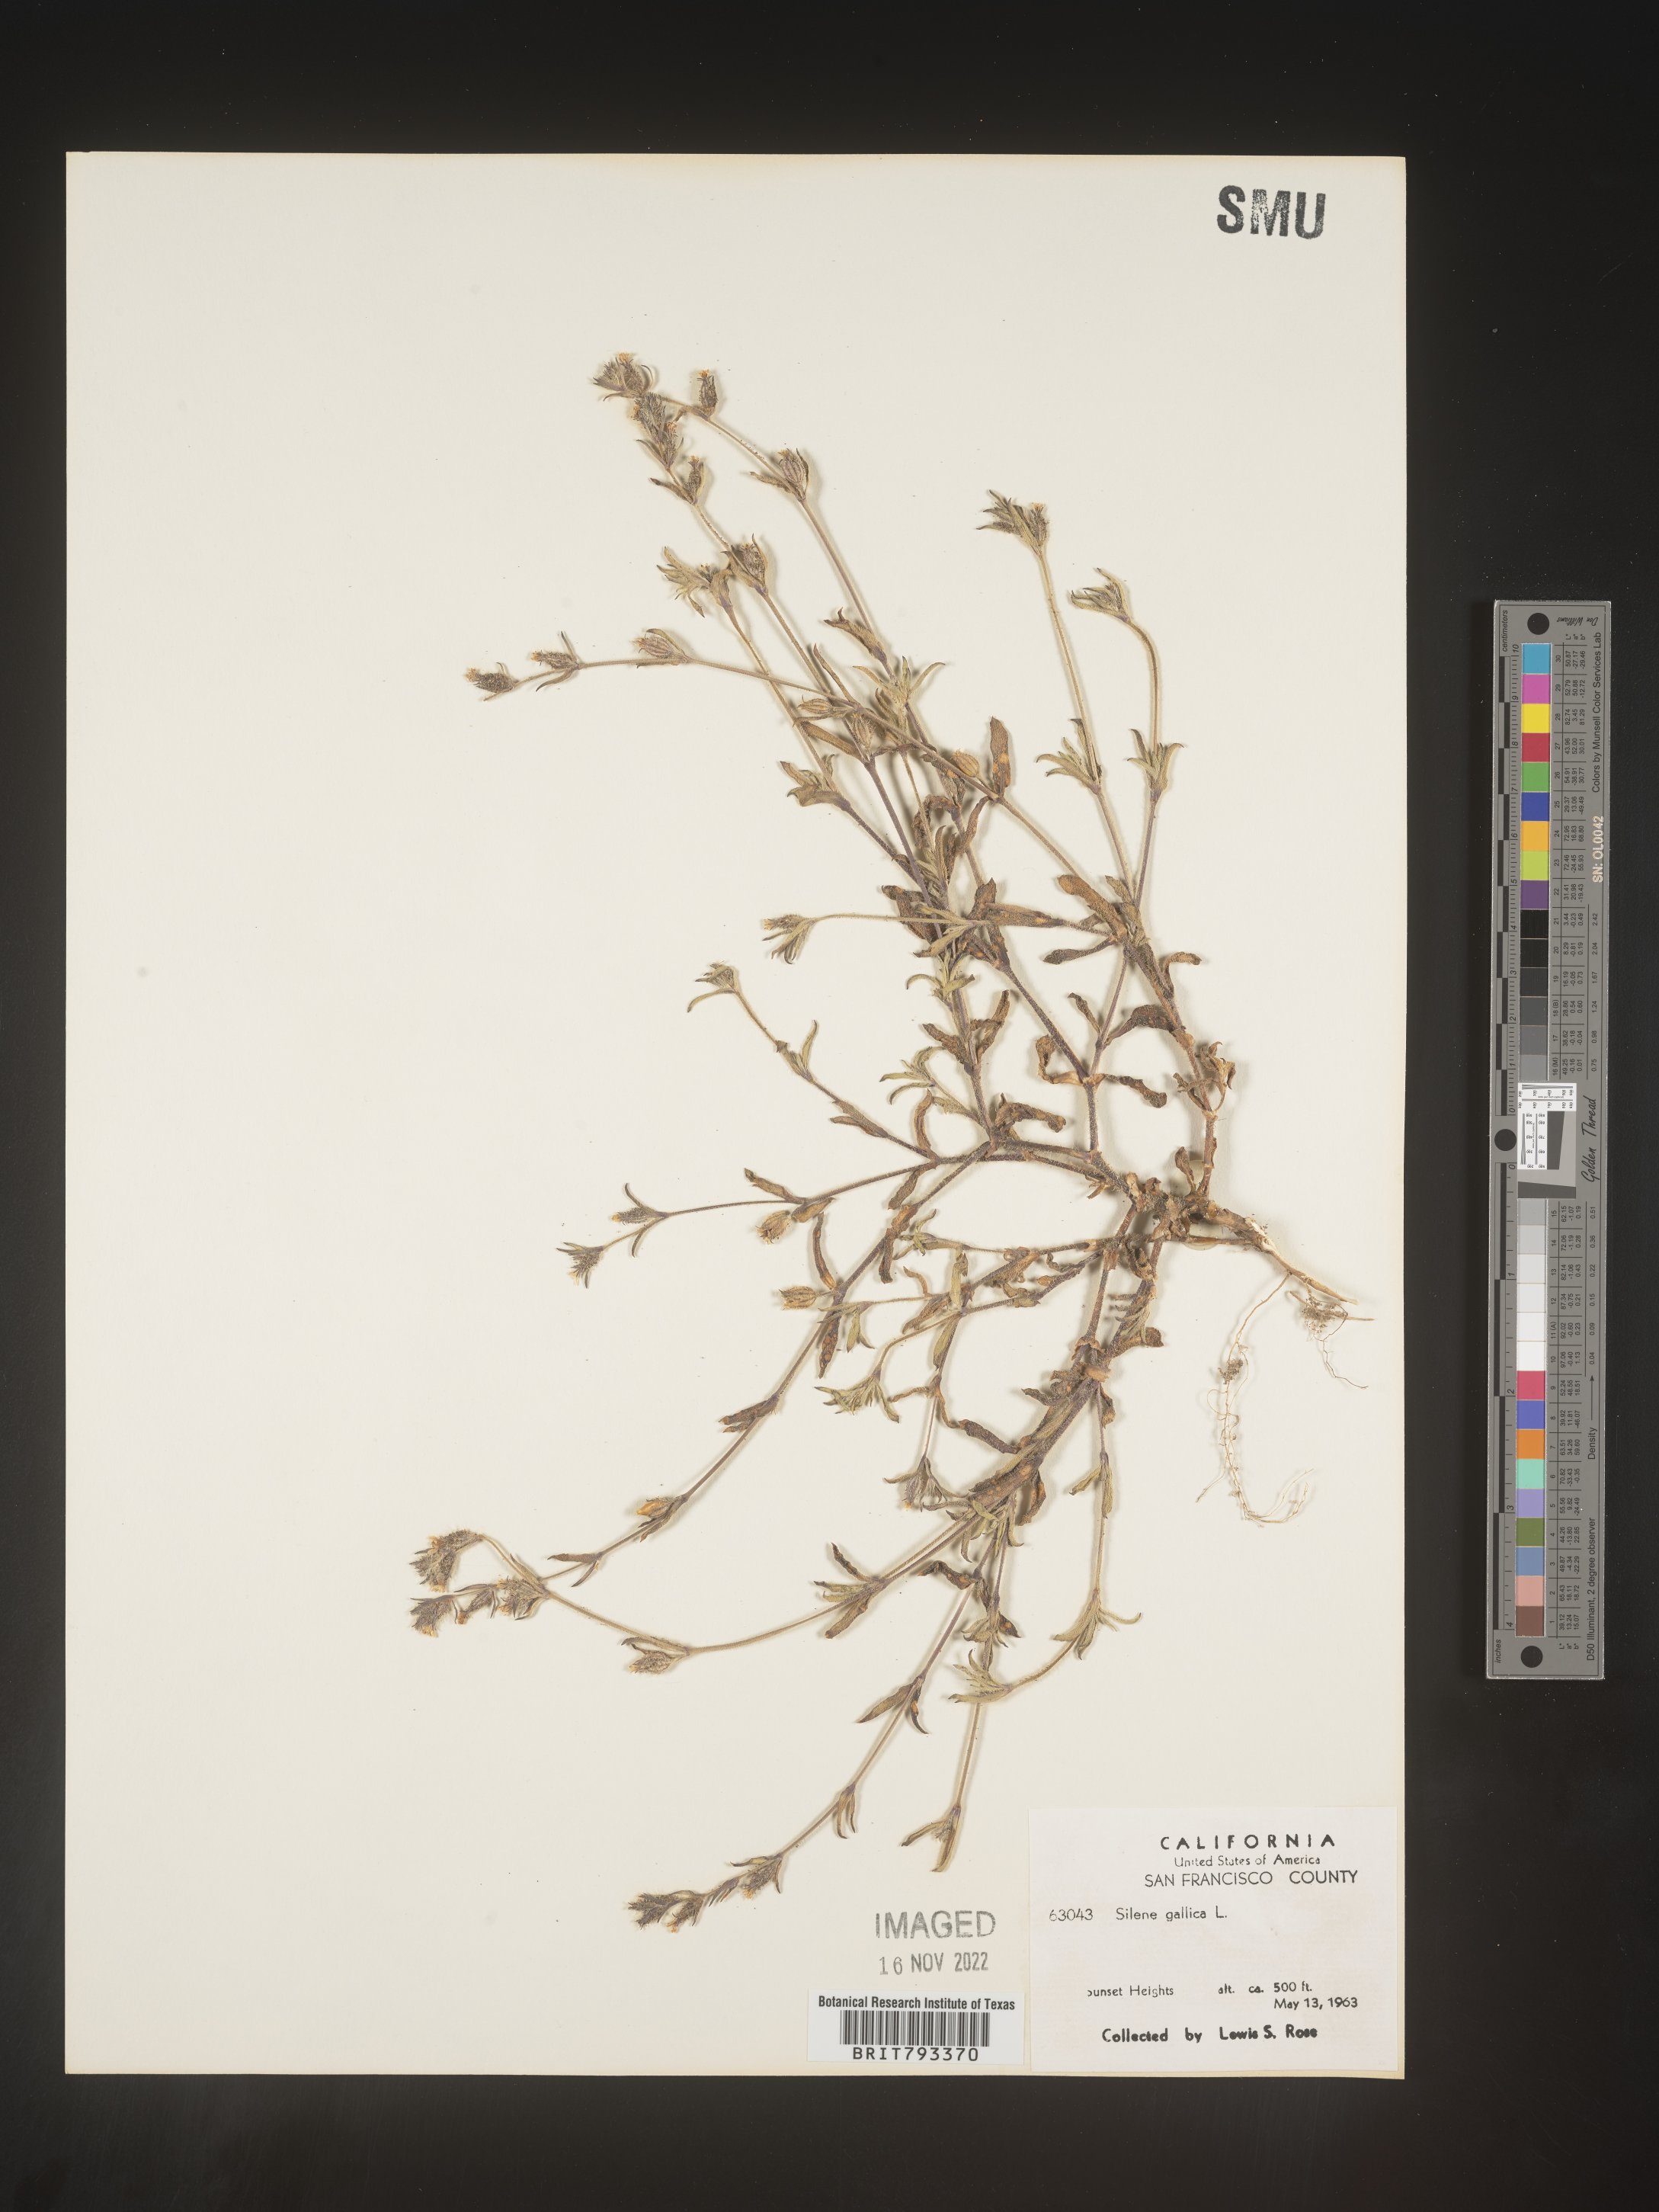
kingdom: Plantae
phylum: Tracheophyta
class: Magnoliopsida
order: Caryophyllales
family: Caryophyllaceae
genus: Silene
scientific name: Silene gallica
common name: Small-flowered catchfly
